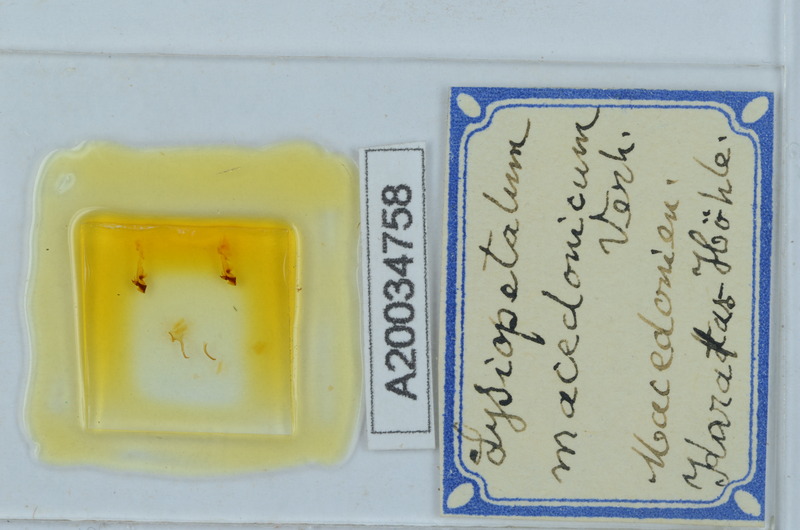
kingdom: Animalia
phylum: Arthropoda
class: Diplopoda
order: Callipodida
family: Schizopetalidae
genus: Acanthopetalum
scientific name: Acanthopetalum carinatum
